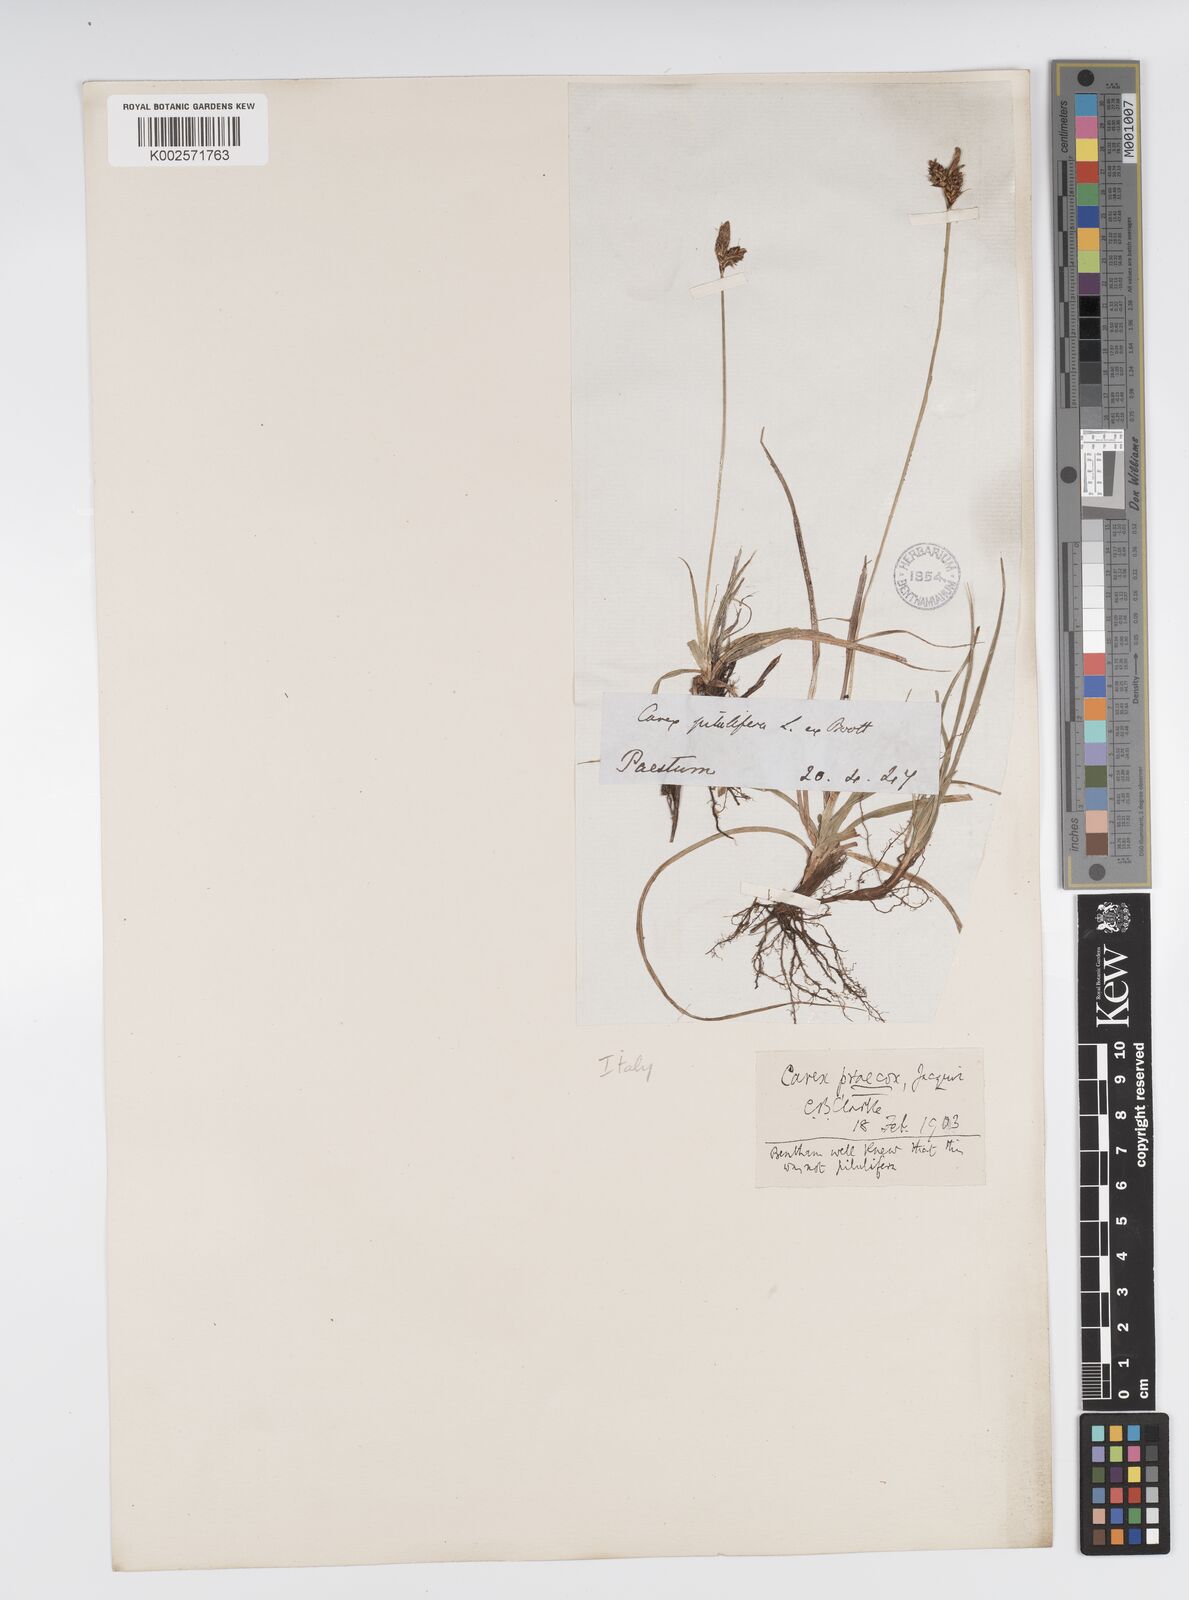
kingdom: Plantae
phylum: Tracheophyta
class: Liliopsida
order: Poales
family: Cyperaceae
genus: Carex
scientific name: Carex caryophyllea
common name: Spring sedge
